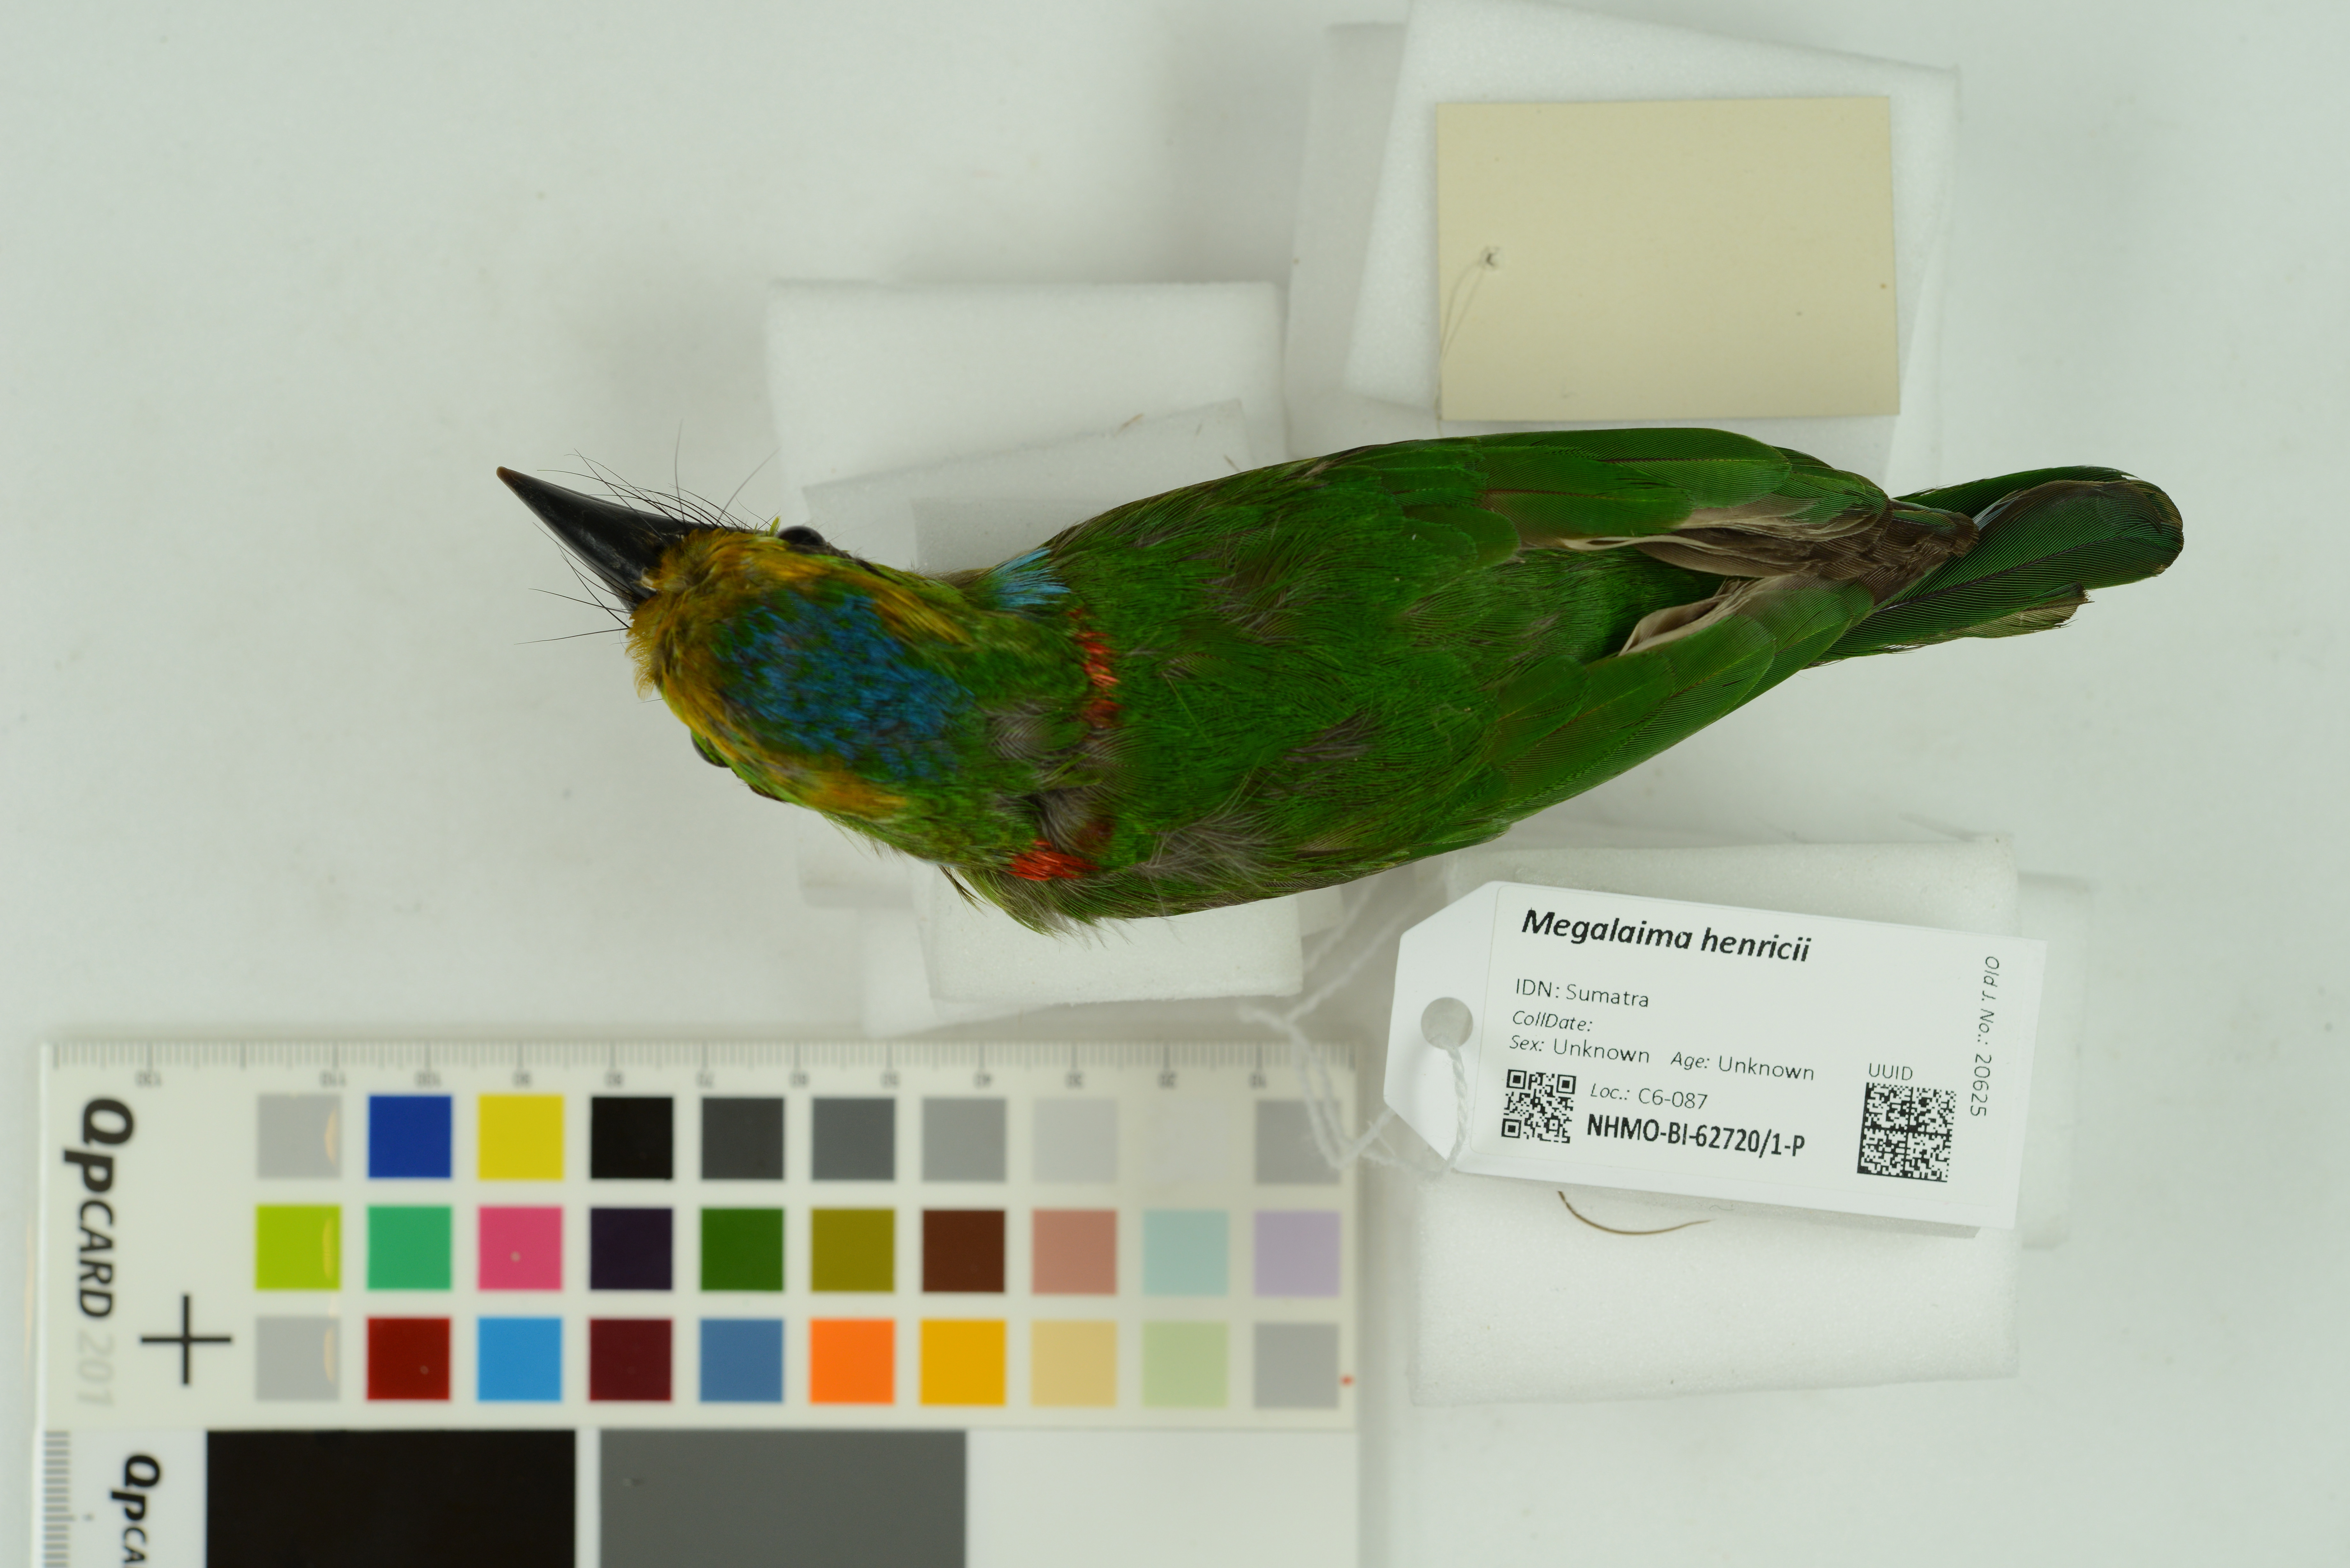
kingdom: Animalia
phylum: Chordata
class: Aves
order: Piciformes
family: Megalaimidae
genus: Psilopogon
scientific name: Psilopogon henricii
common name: Yellow-crowned barbet
